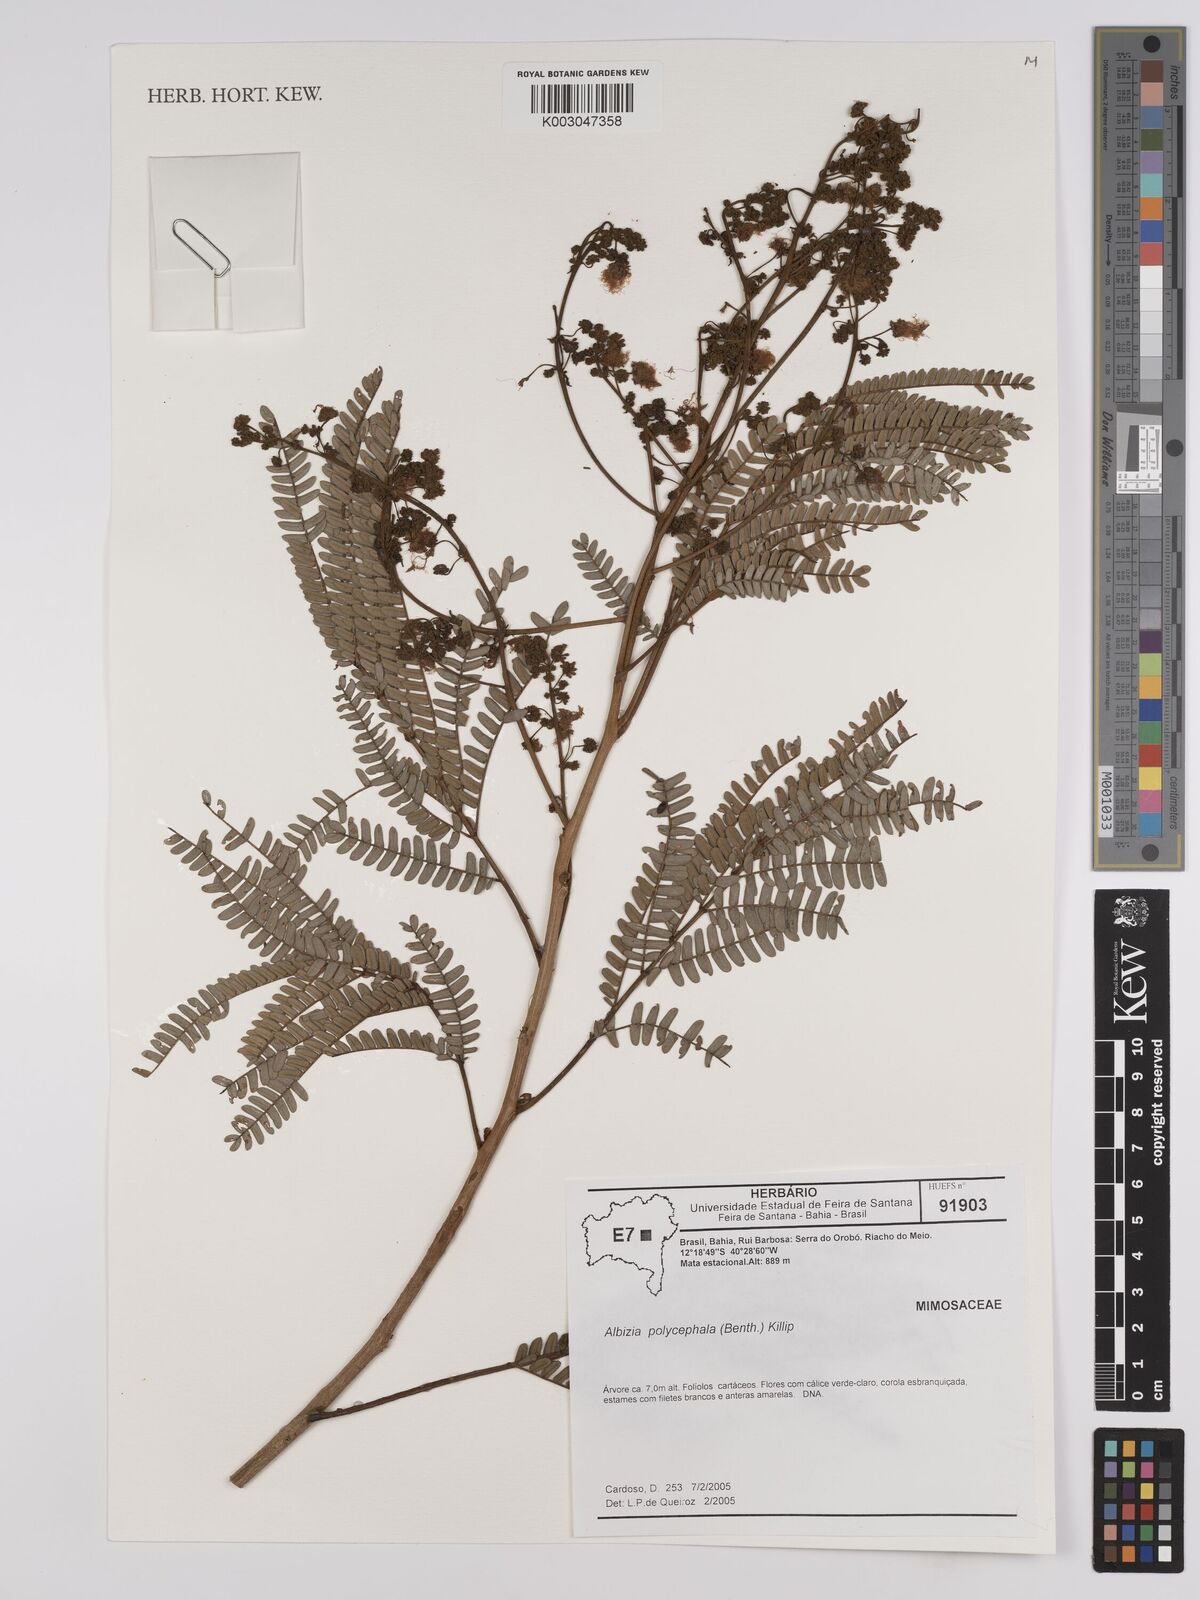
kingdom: Plantae
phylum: Tracheophyta
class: Magnoliopsida
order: Fabales
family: Fabaceae
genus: Albizia
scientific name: Albizia polycephala
